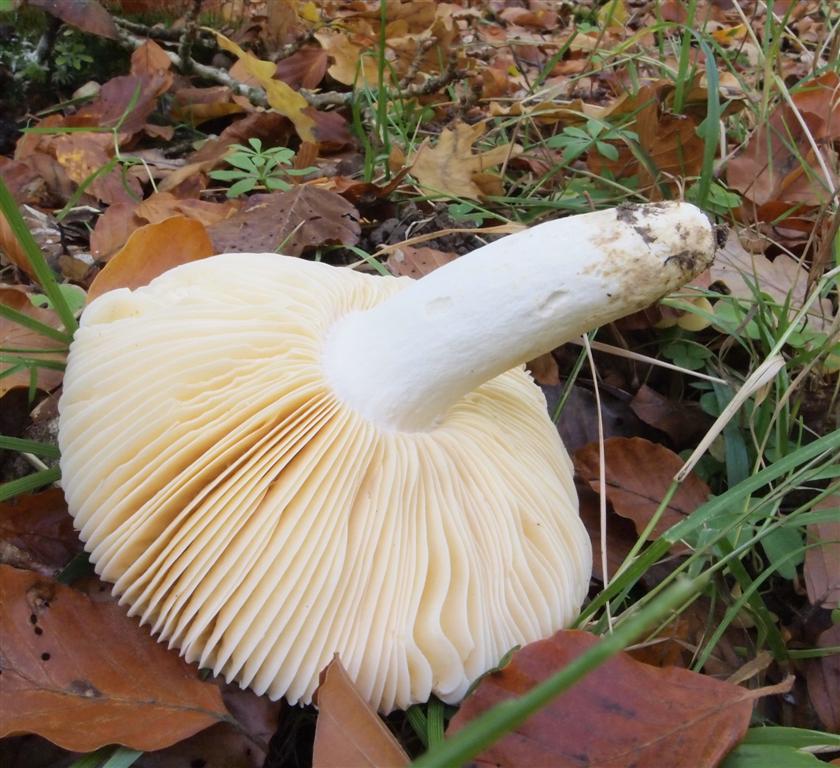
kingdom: Fungi
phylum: Basidiomycota
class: Agaricomycetes
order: Russulales
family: Russulaceae
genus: Russula
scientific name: Russula laeta
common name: orangerosa skørhat
